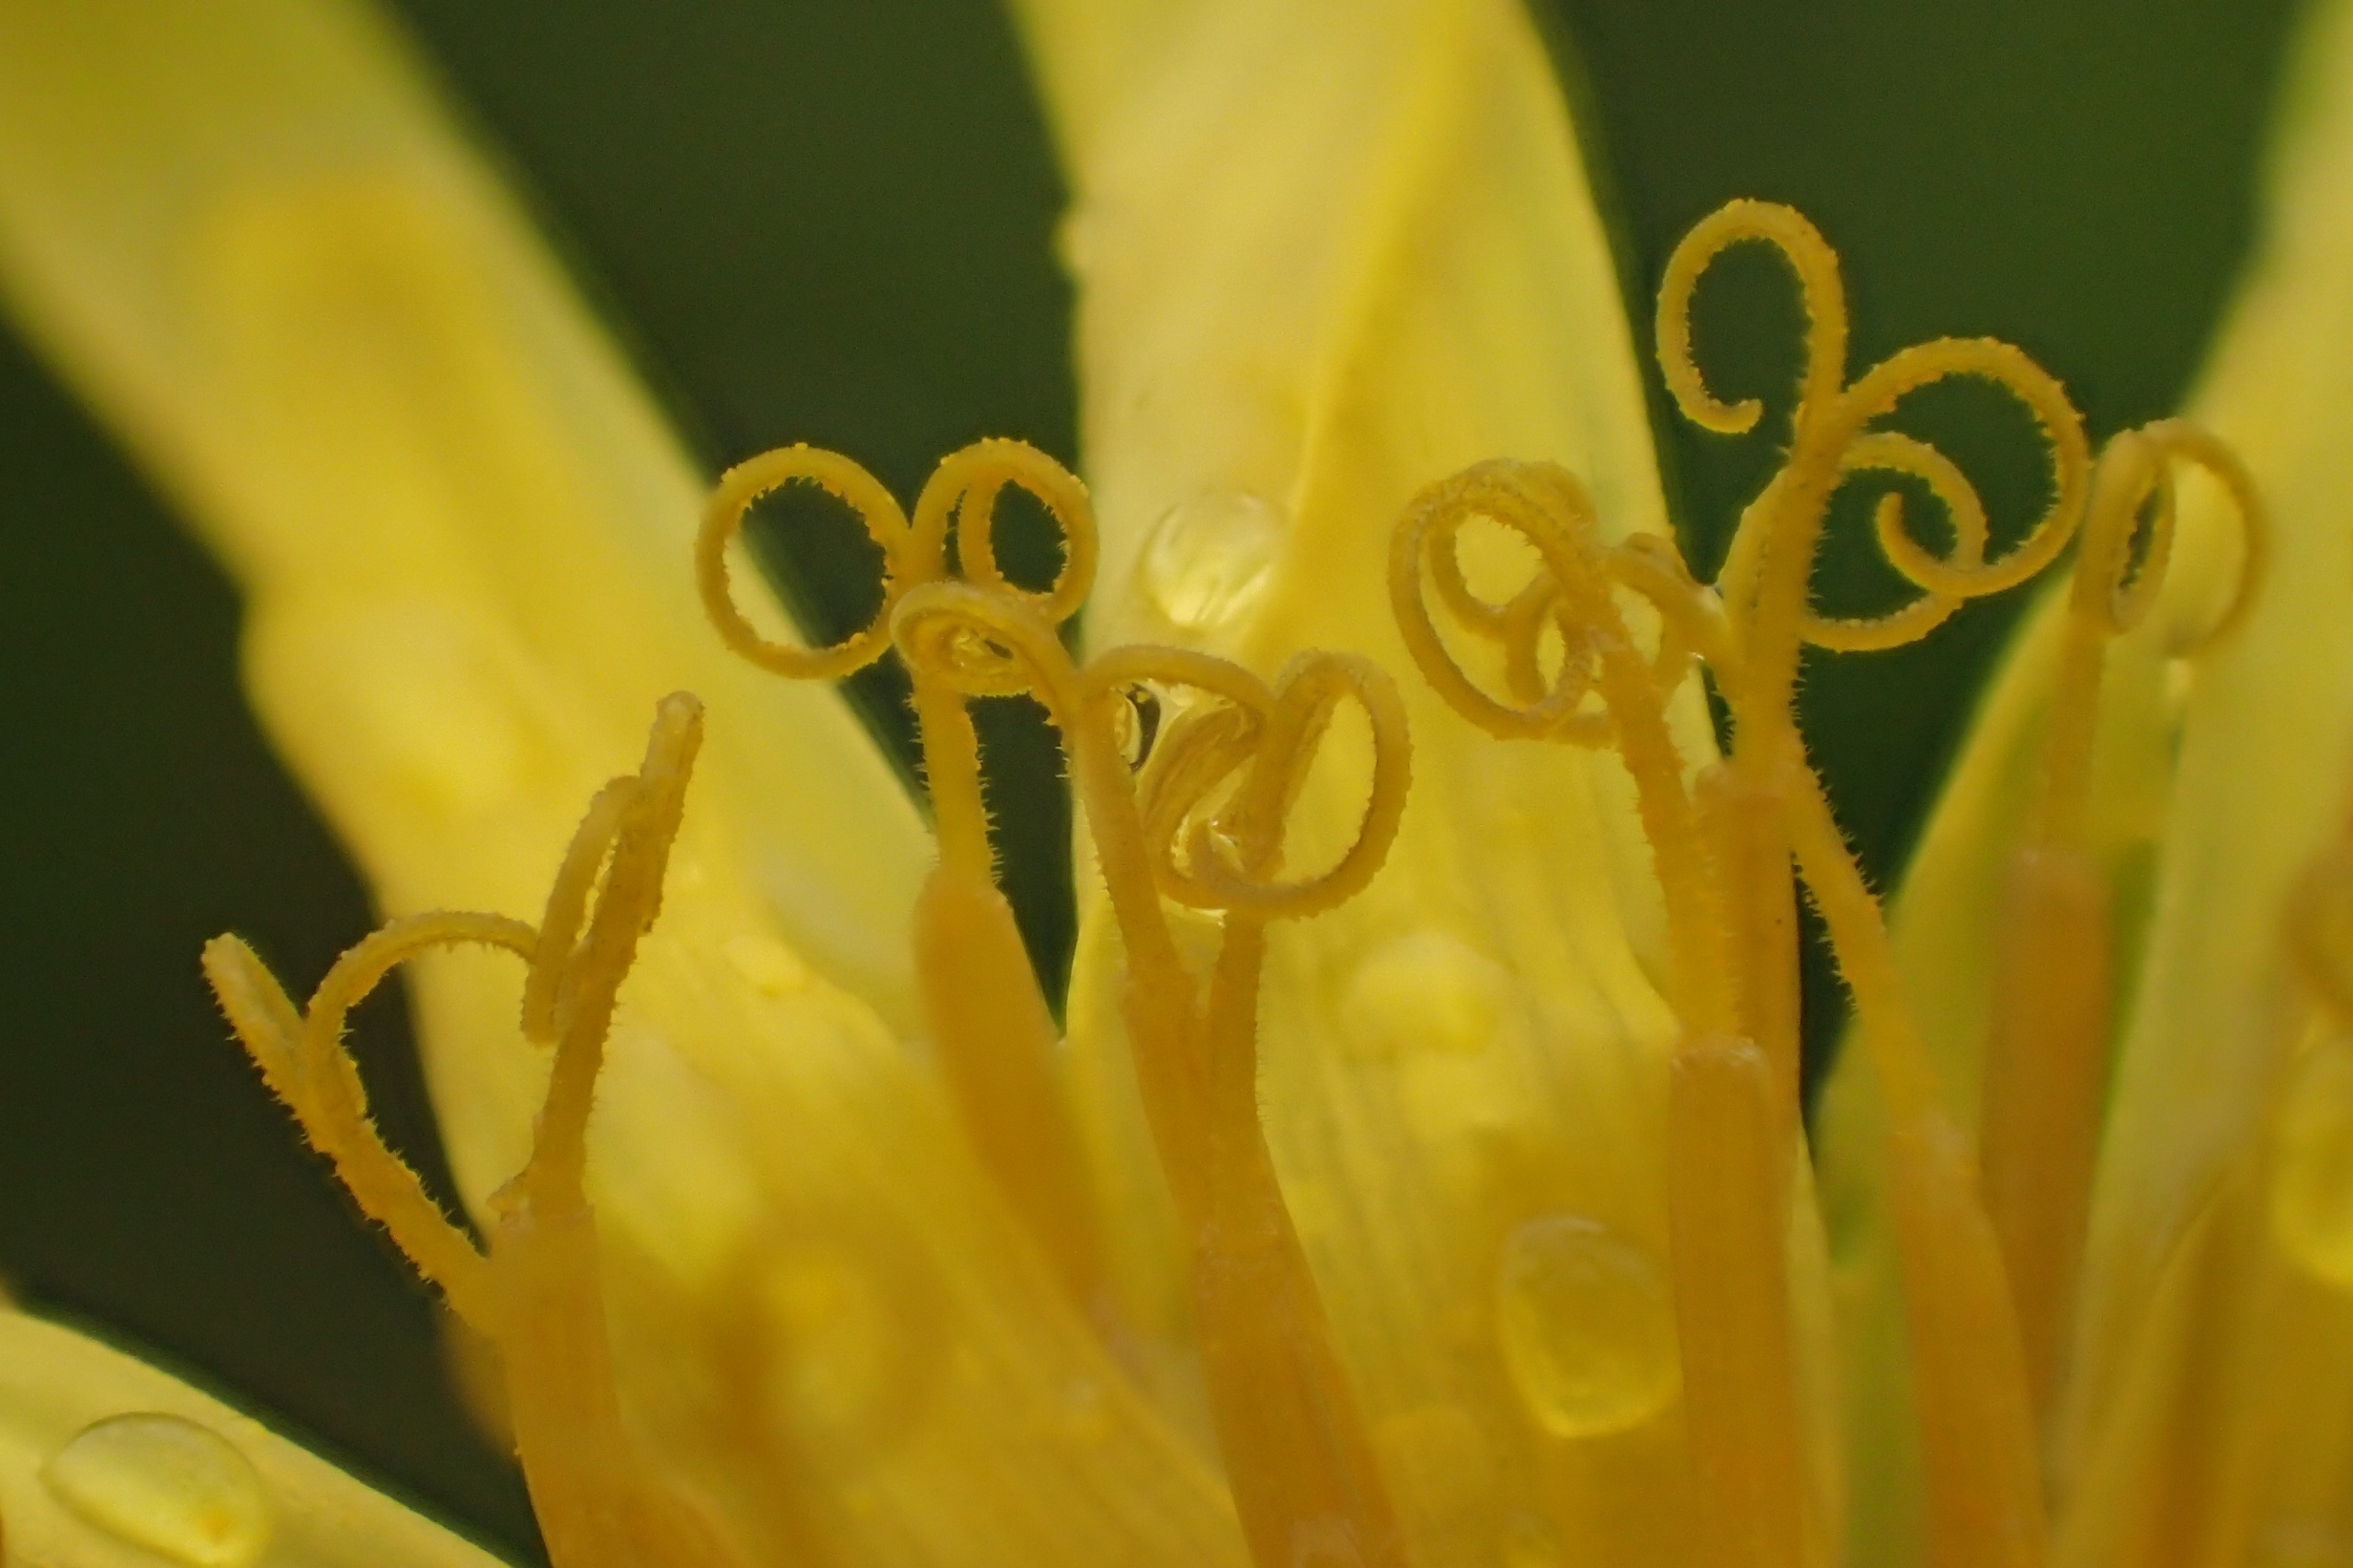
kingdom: Plantae
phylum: Tracheophyta
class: Magnoliopsida
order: Asterales
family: Asteraceae
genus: Taraxacum
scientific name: Taraxacum gelertii
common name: Gelerts pletmælkebøtte
